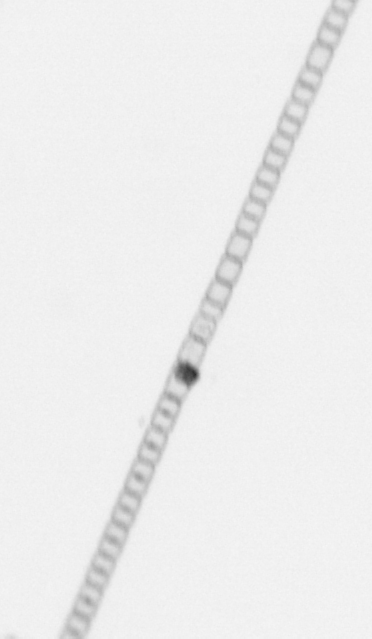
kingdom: Chromista
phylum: Ochrophyta
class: Bacillariophyceae
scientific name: Bacillariophyceae
